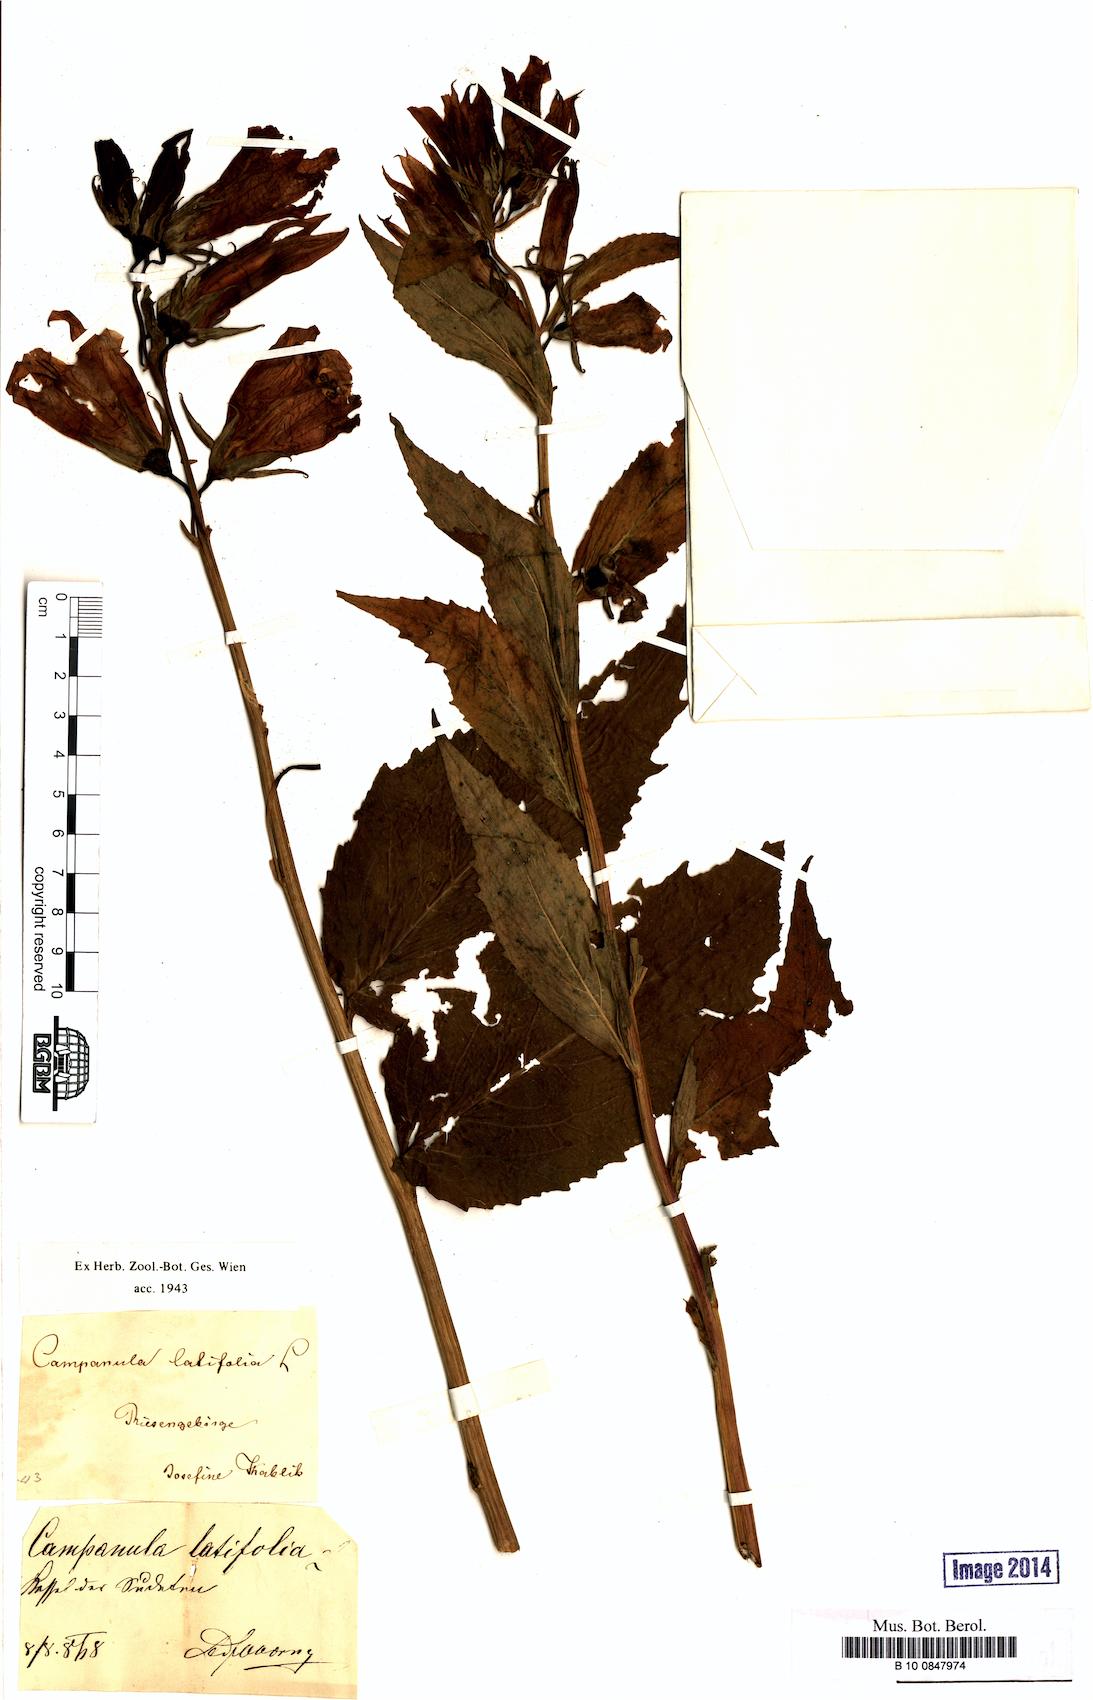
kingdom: Plantae
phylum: Tracheophyta
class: Magnoliopsida
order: Asterales
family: Campanulaceae
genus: Campanula
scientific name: Campanula latifolia
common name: Giant bellflower
